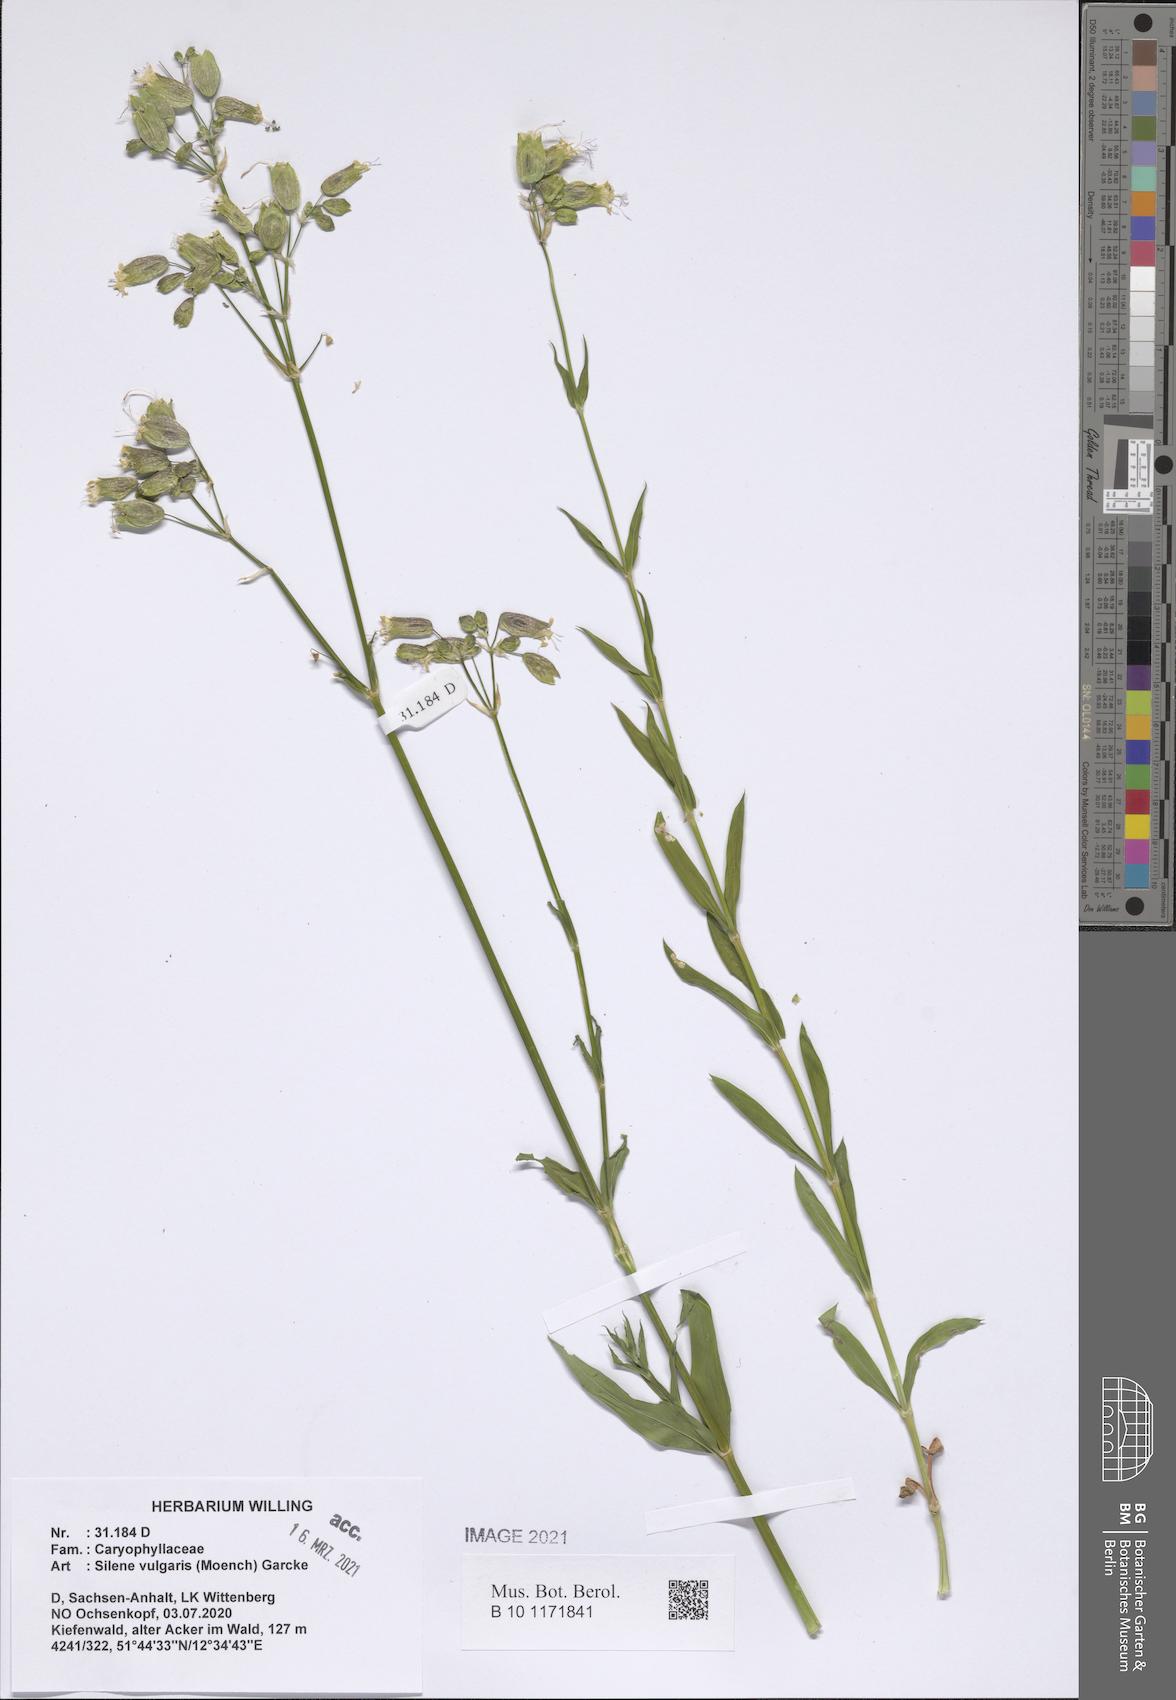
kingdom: Plantae
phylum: Tracheophyta
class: Magnoliopsida
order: Caryophyllales
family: Caryophyllaceae
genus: Silene
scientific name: Silene vulgaris
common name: Bladder campion
